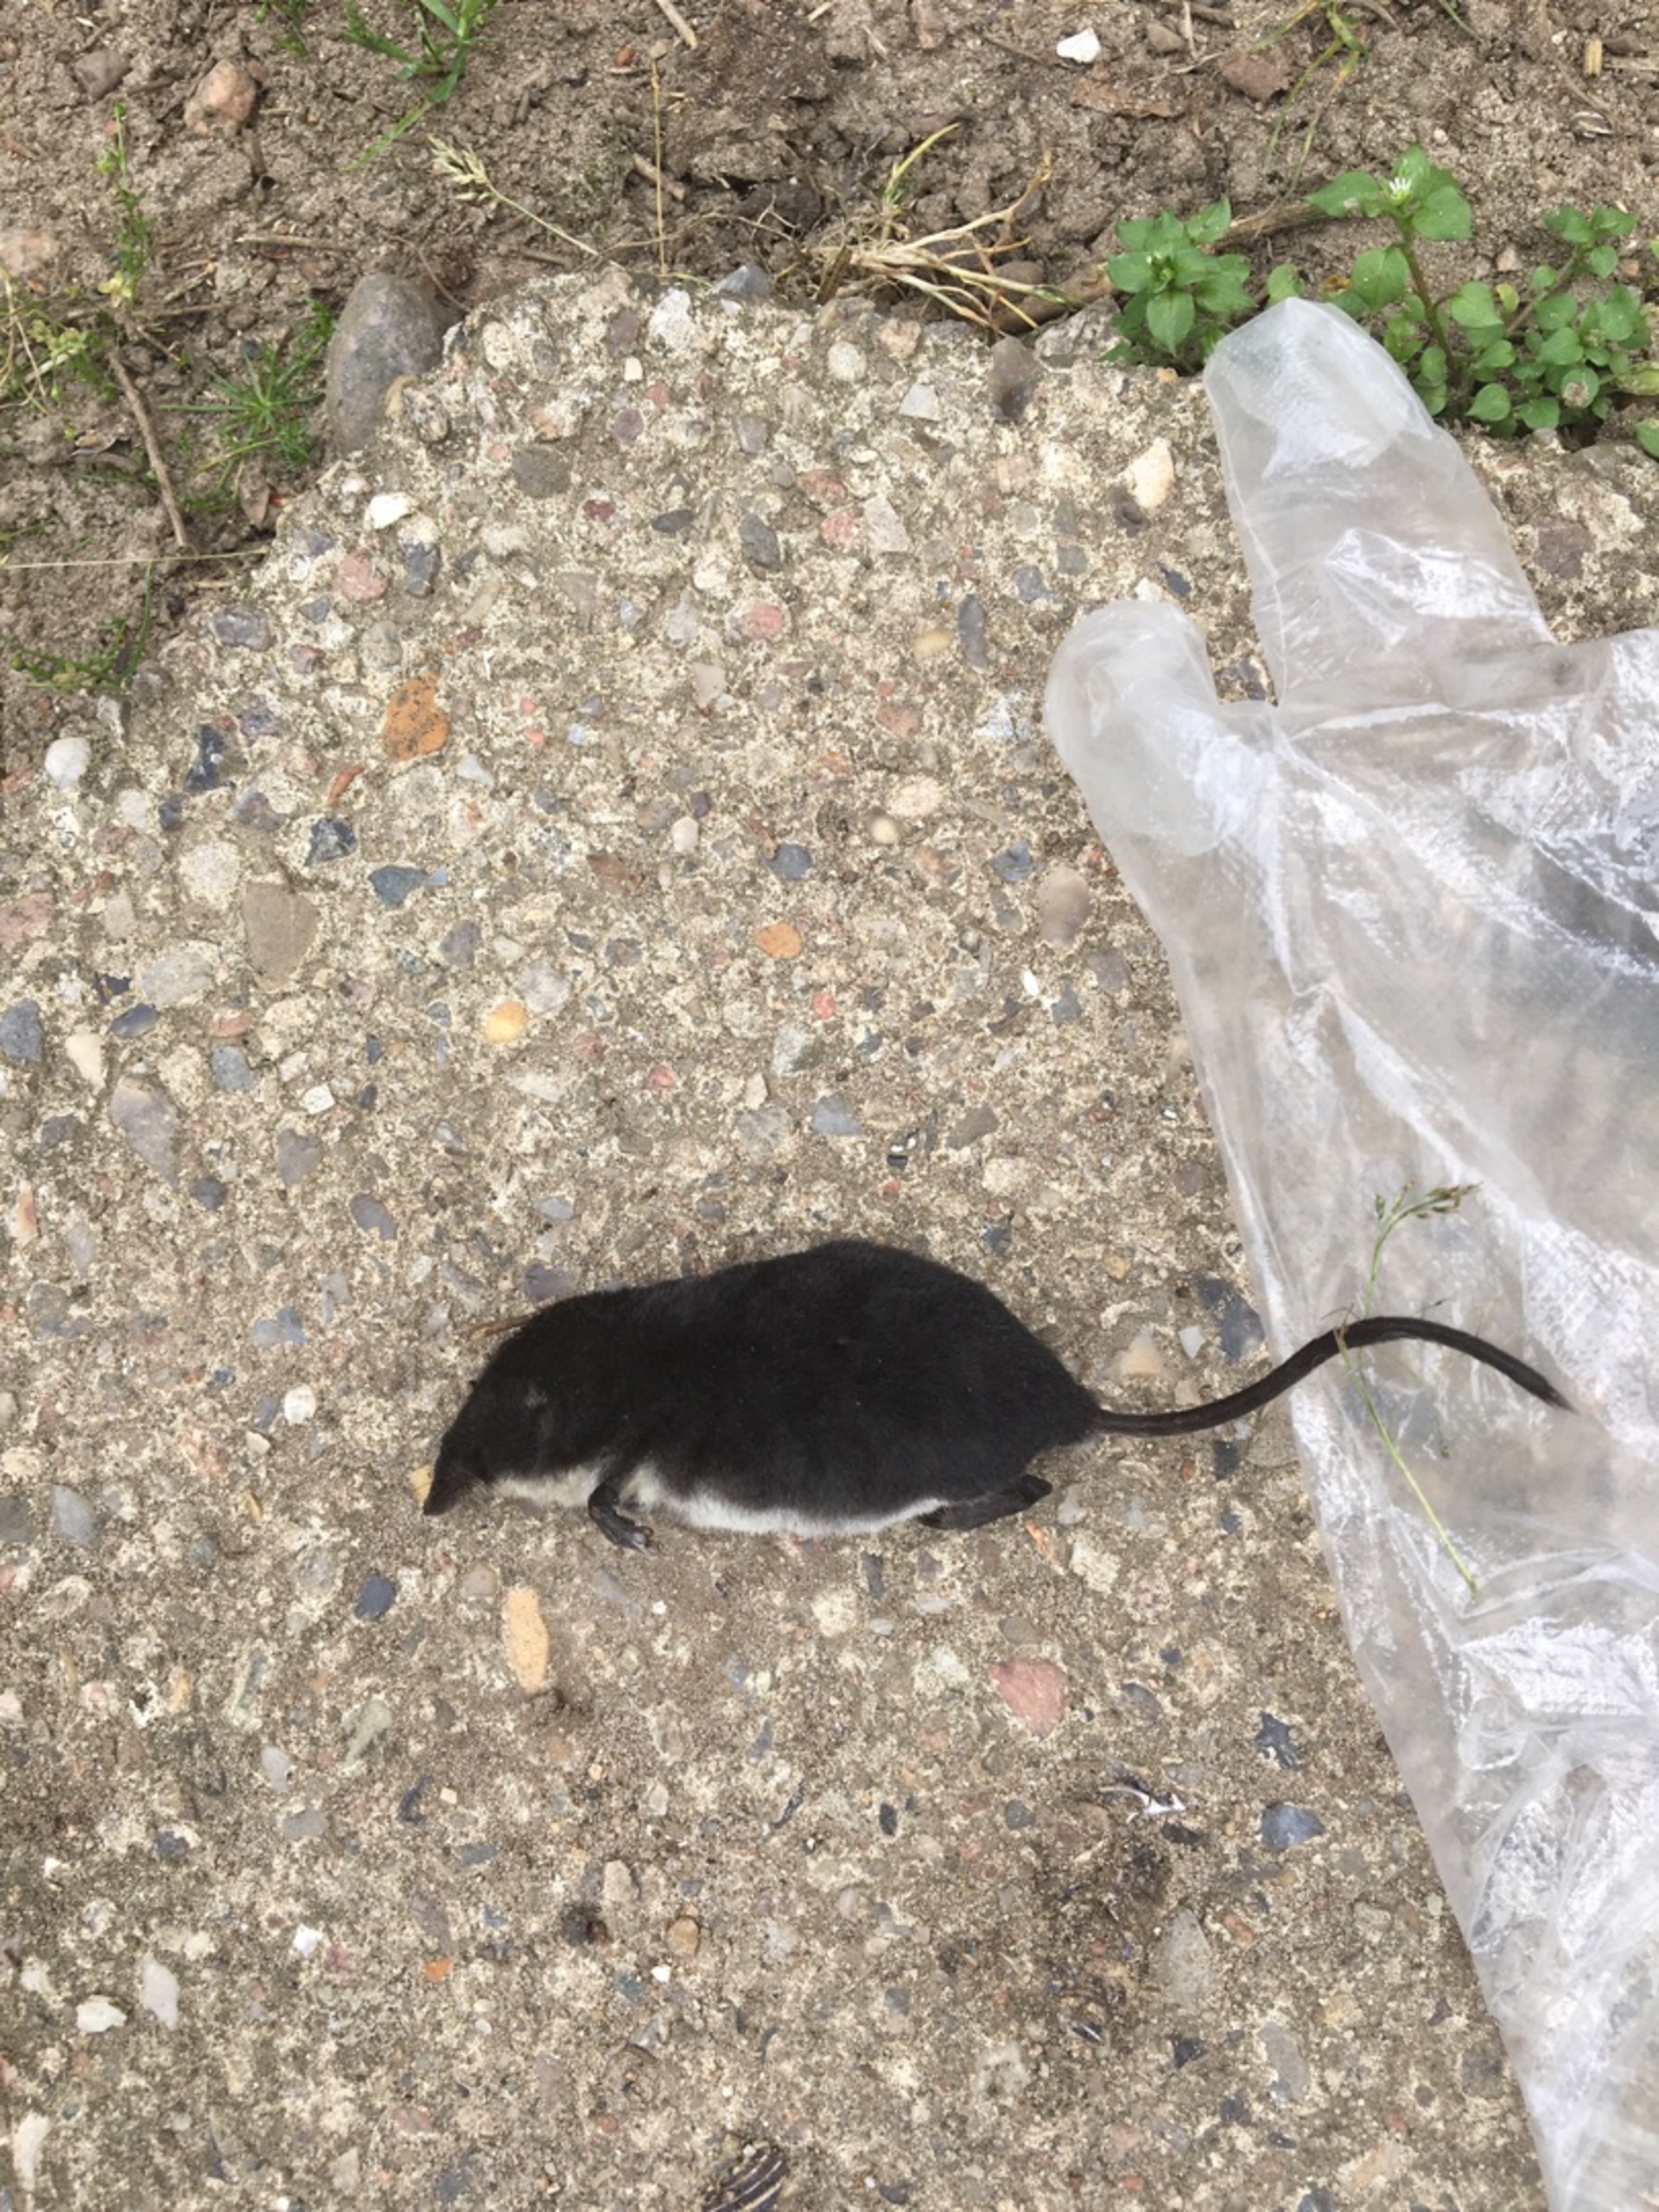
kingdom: Animalia
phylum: Chordata
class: Mammalia
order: Soricomorpha
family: Soricidae
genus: Neomys
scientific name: Neomys fodiens
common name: Vandspidsmus
